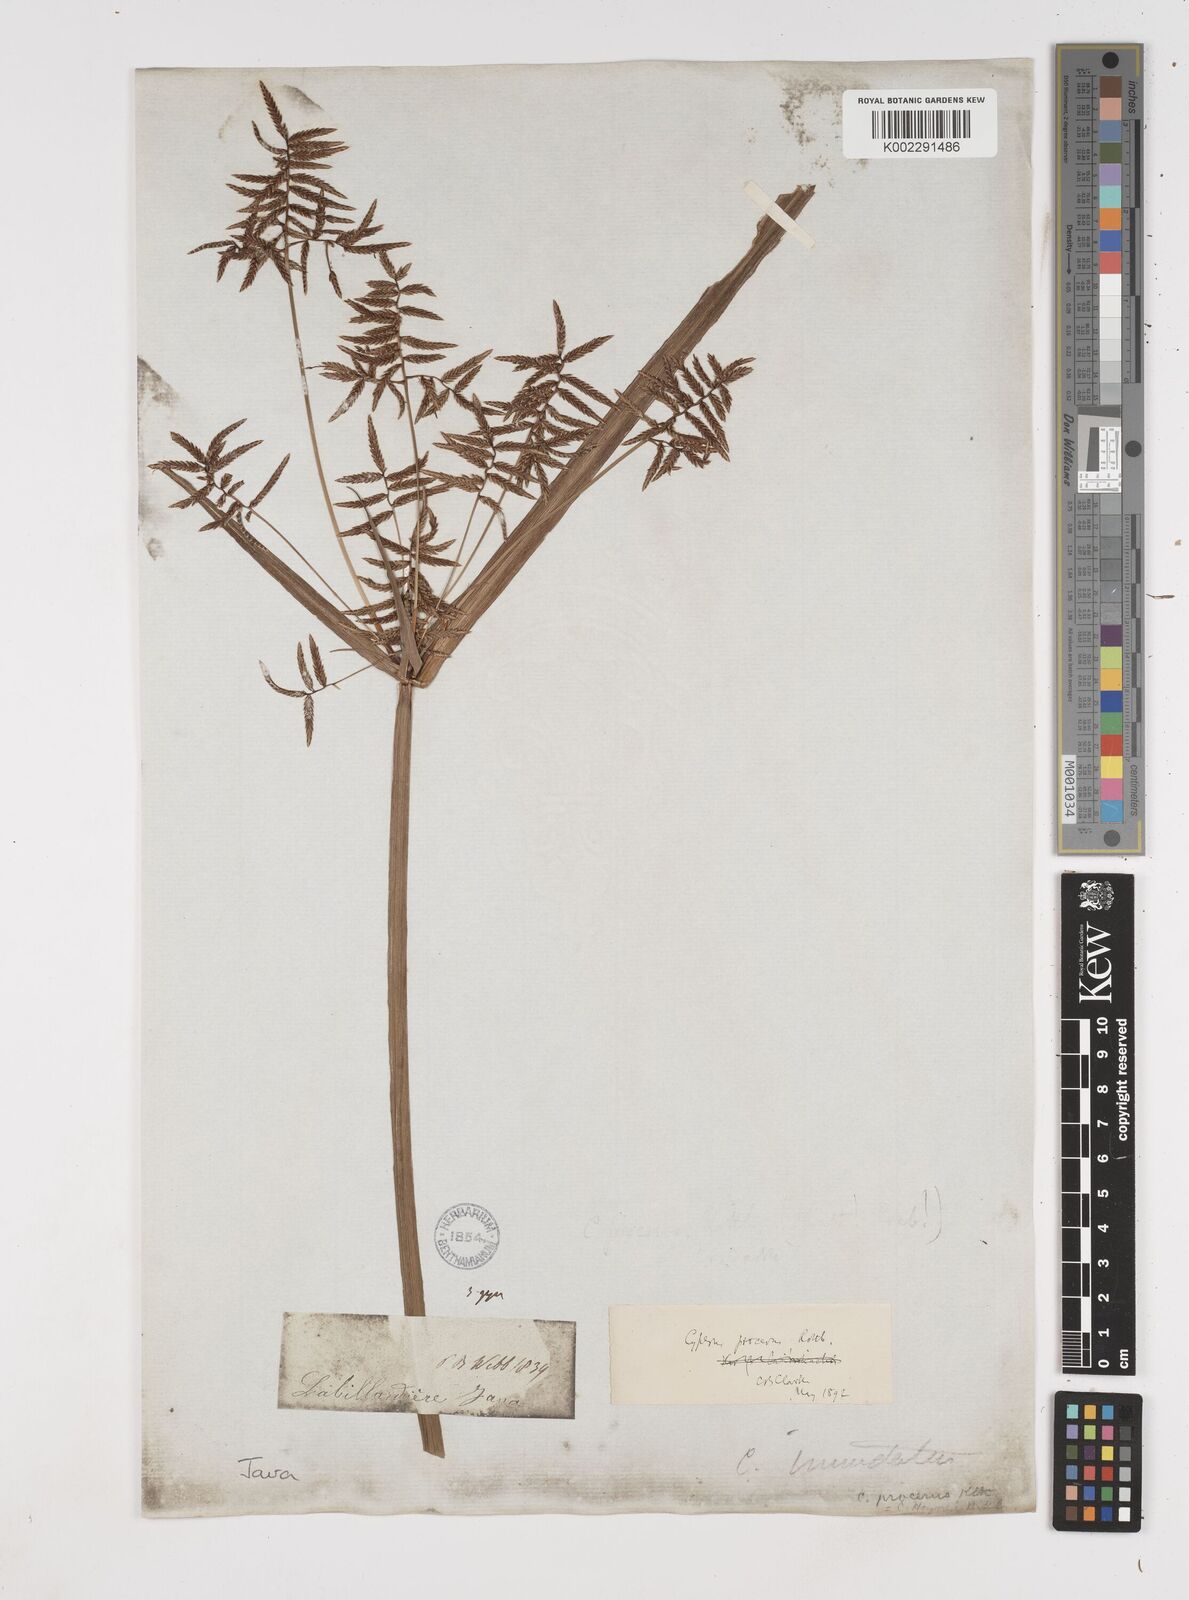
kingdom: Plantae
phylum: Tracheophyta
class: Liliopsida
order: Poales
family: Cyperaceae
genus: Cyperus
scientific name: Cyperus procerus
